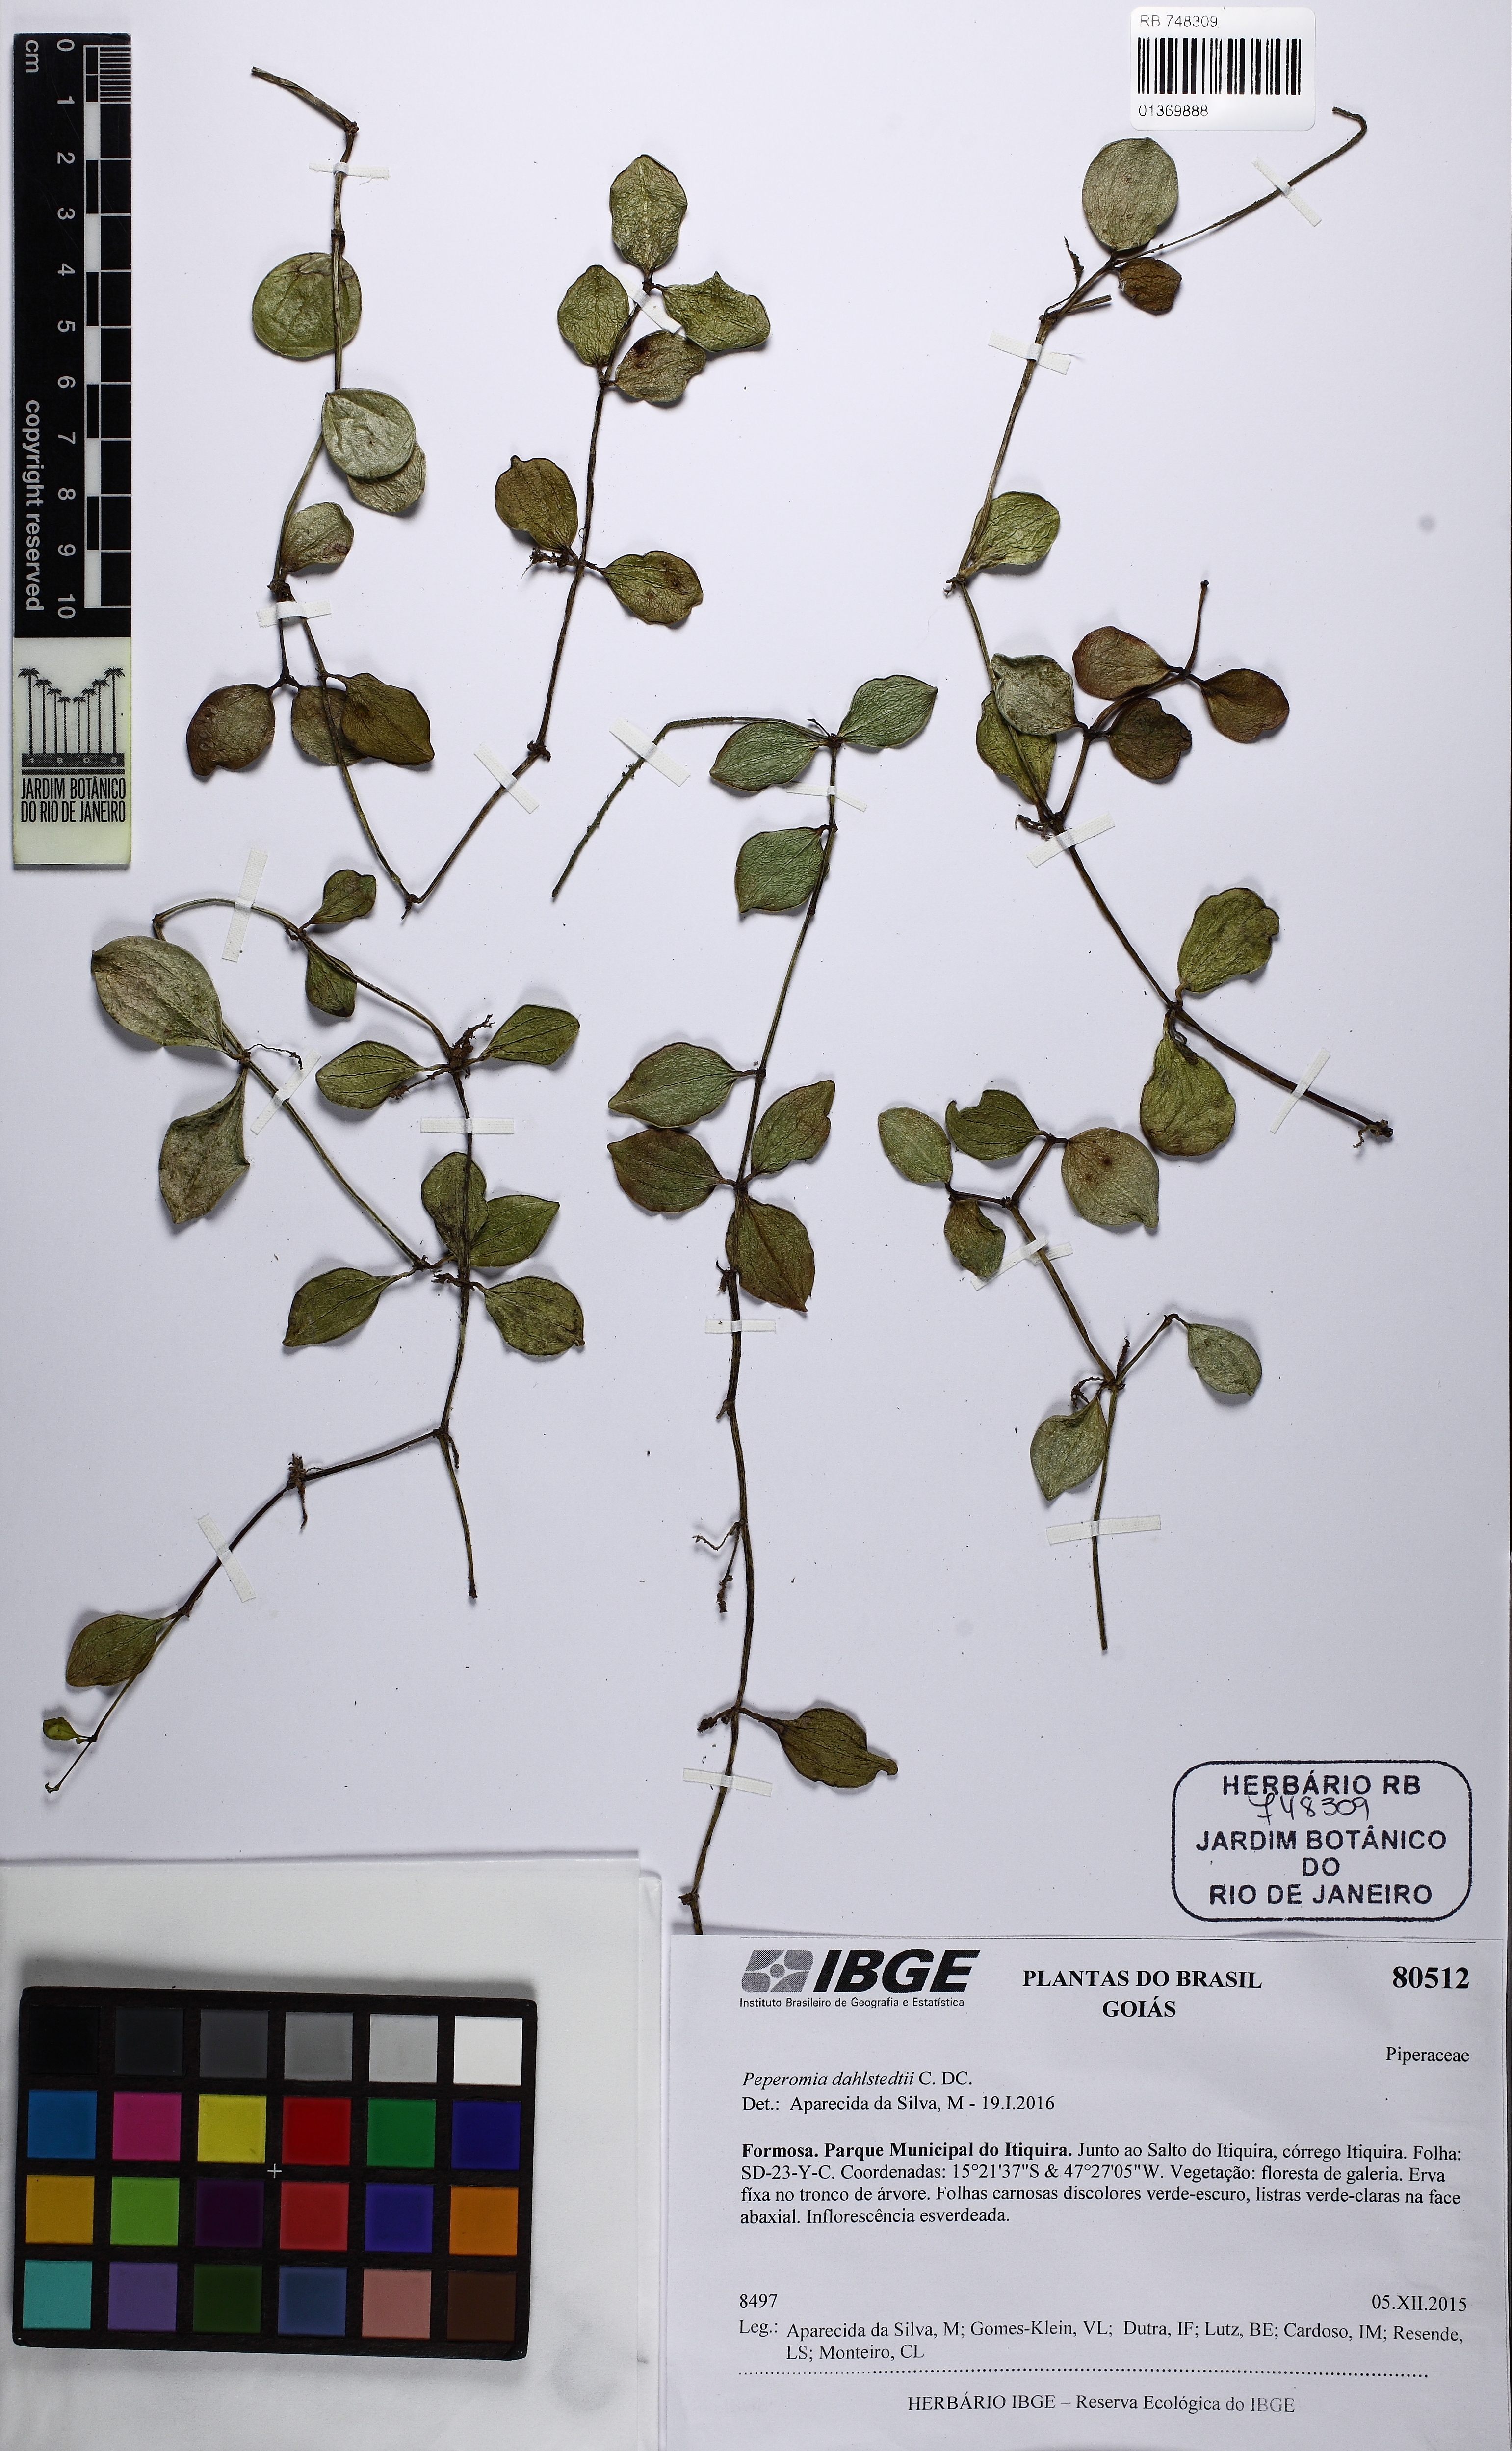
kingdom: Plantae
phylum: Tracheophyta
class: Magnoliopsida
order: Piperales
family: Piperaceae
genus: Peperomia
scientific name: Peperomia dahlstedtii
